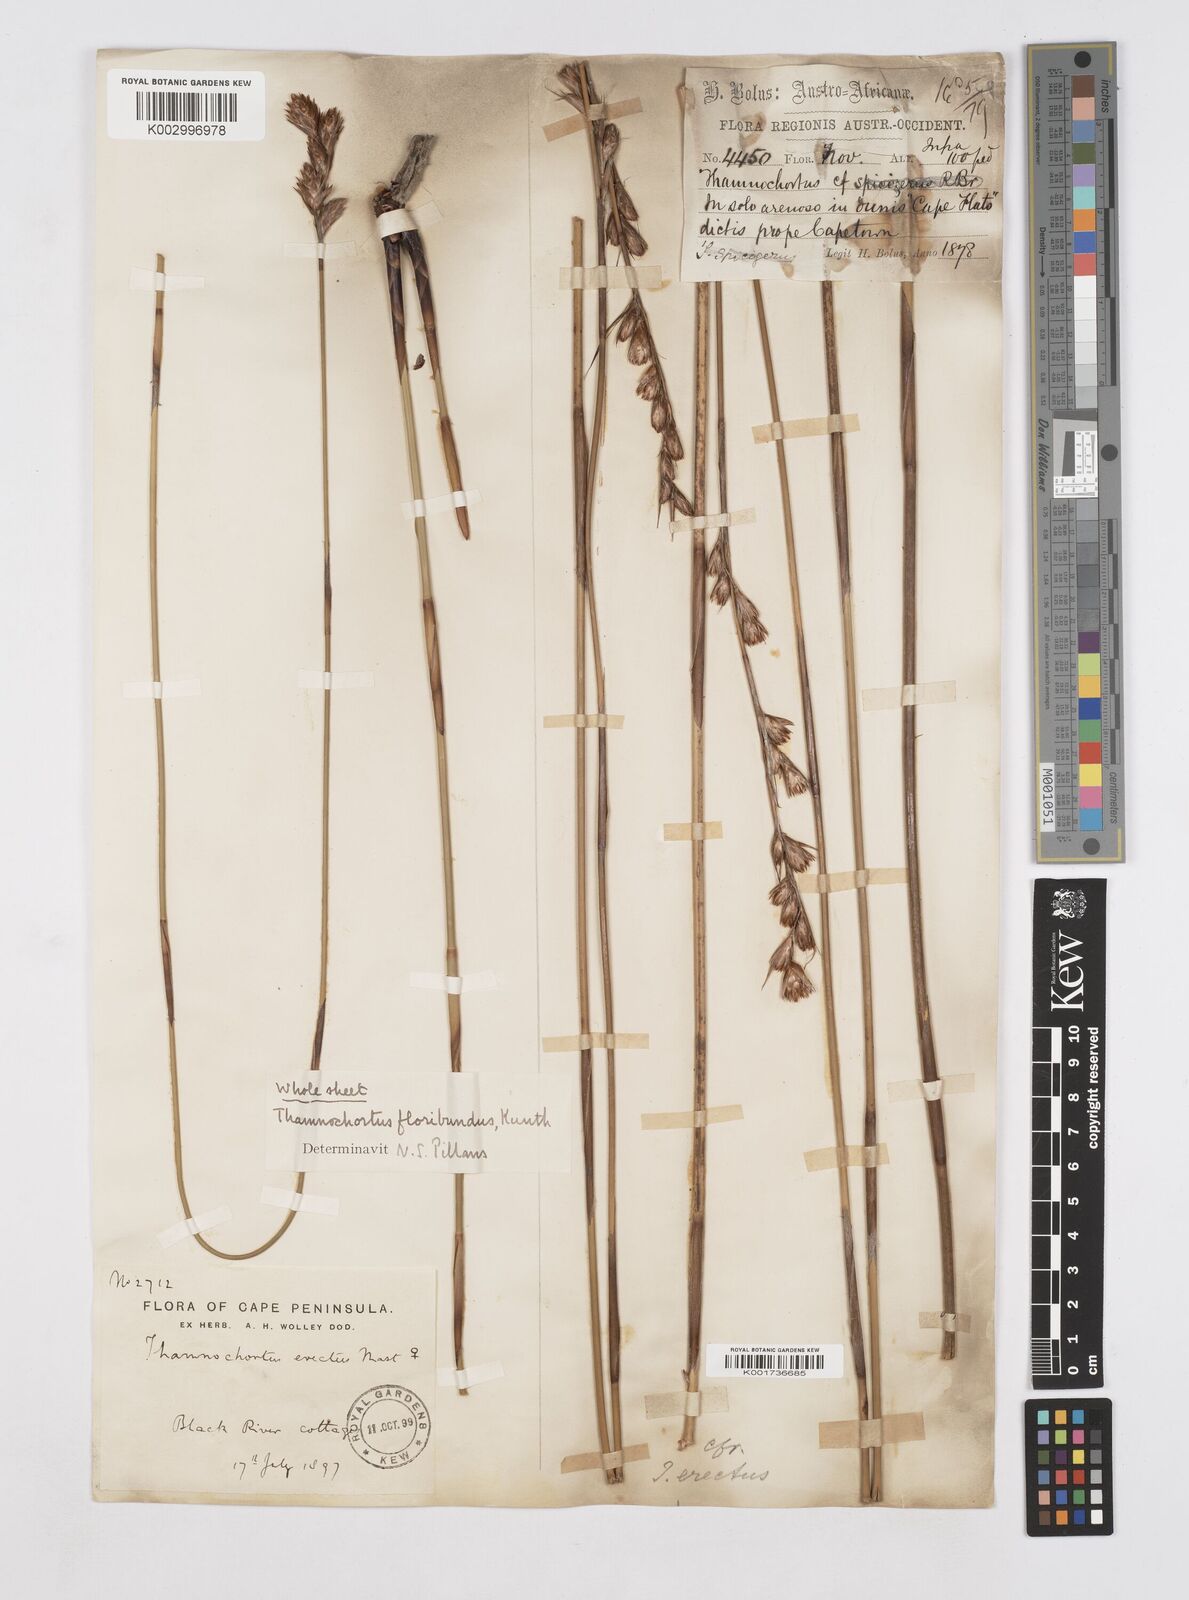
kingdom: Plantae
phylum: Tracheophyta
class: Liliopsida
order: Poales
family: Restionaceae
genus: Thamnochortus
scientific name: Thamnochortus erectus
